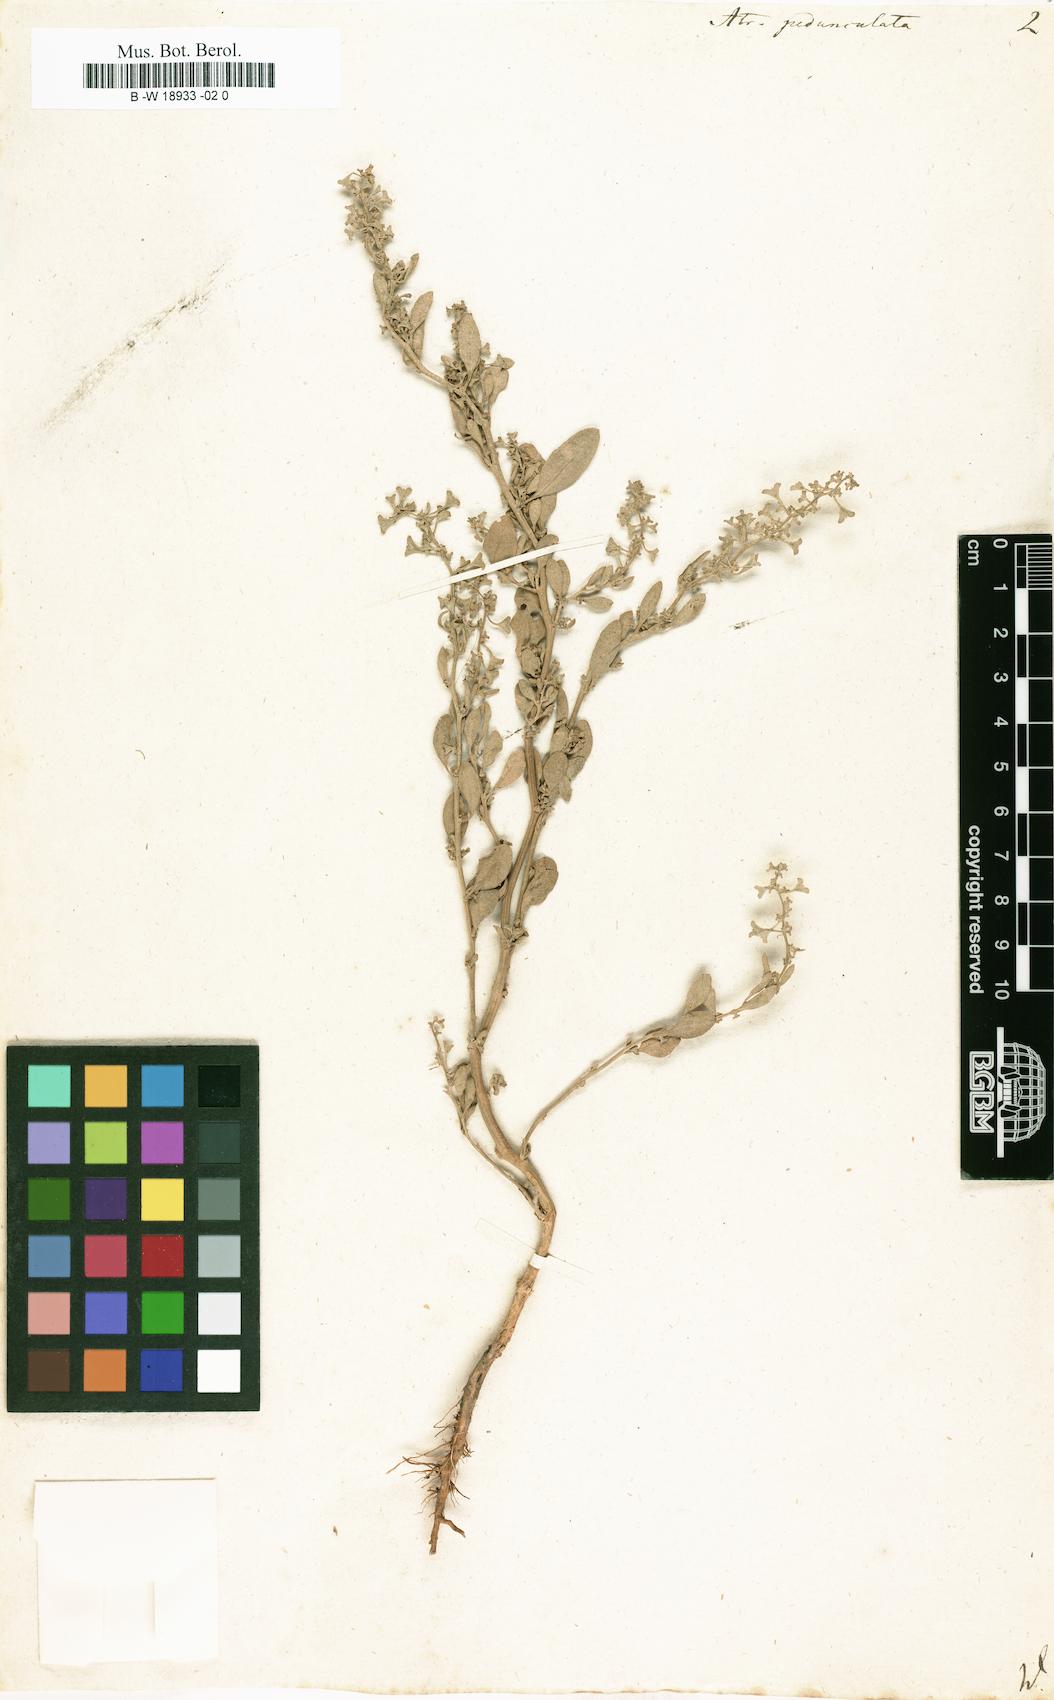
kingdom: Plantae
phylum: Tracheophyta
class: Magnoliopsida
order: Caryophyllales
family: Amaranthaceae
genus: Halimione
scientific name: Halimione pedunculata
